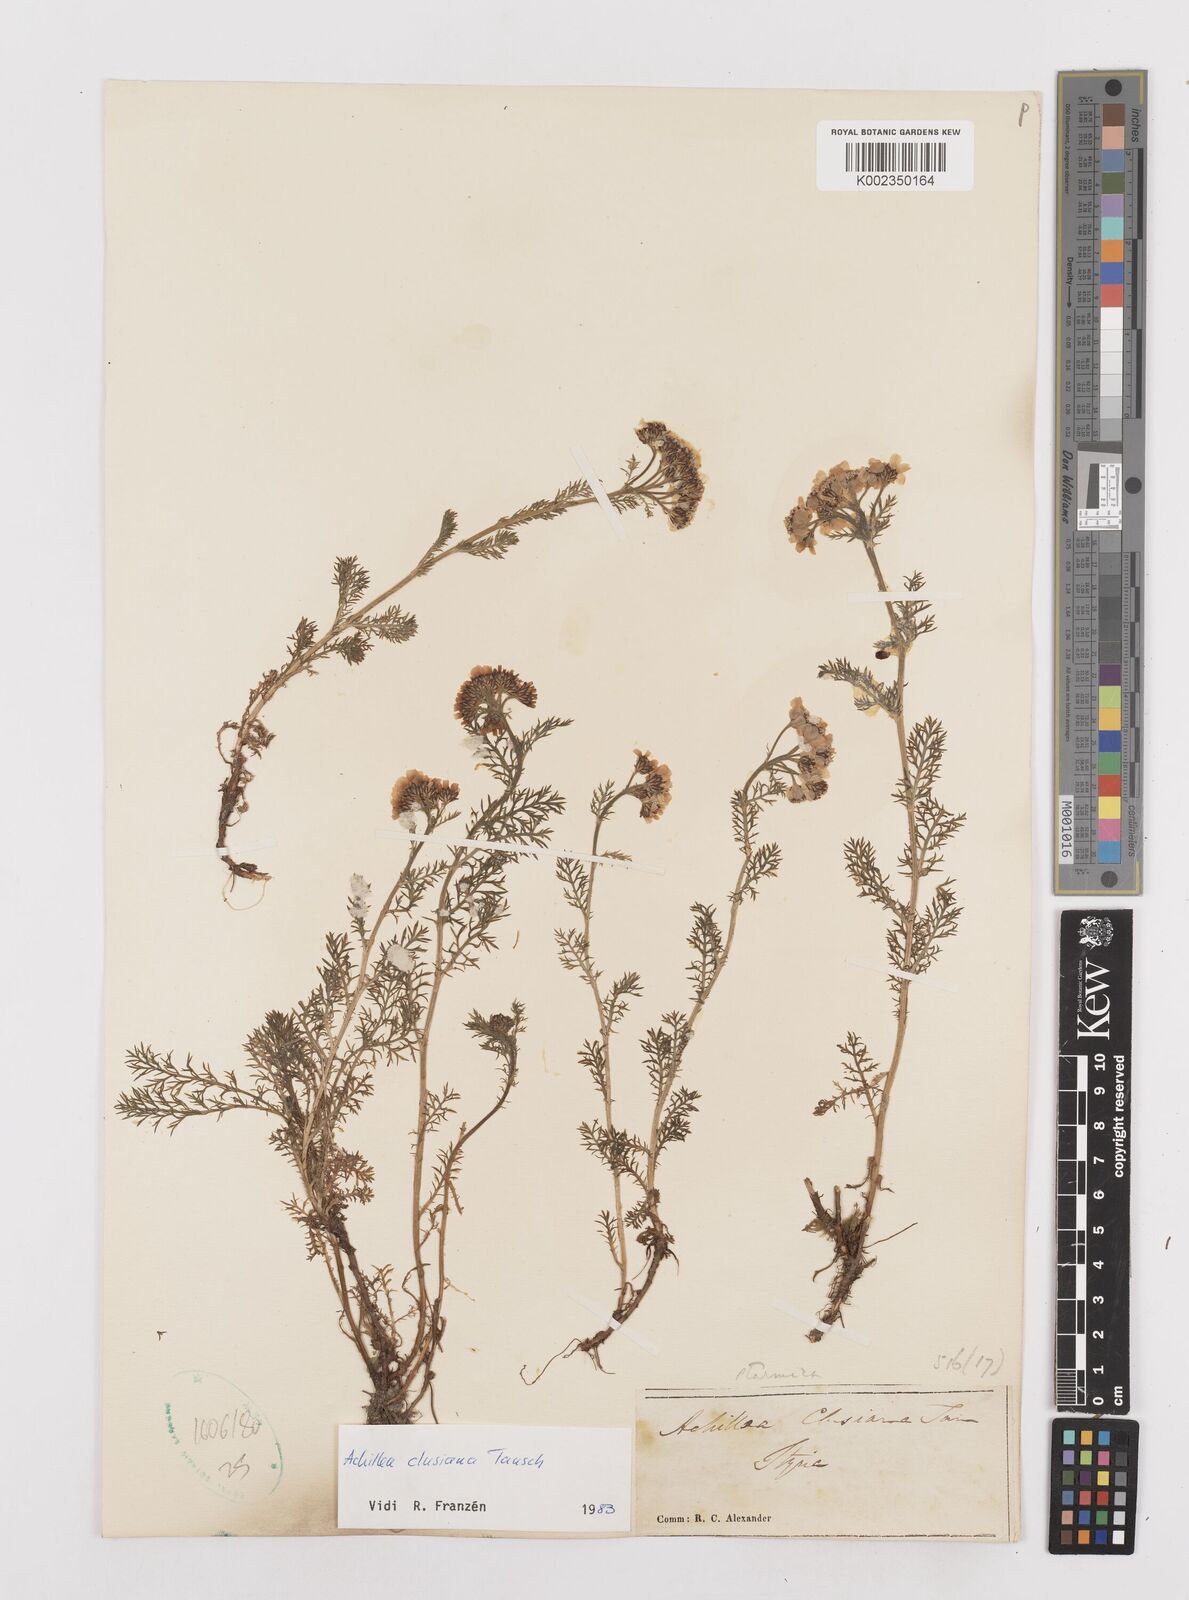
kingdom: Plantae
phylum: Tracheophyta
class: Magnoliopsida
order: Asterales
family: Asteraceae
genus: Achillea
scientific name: Achillea clusiana
